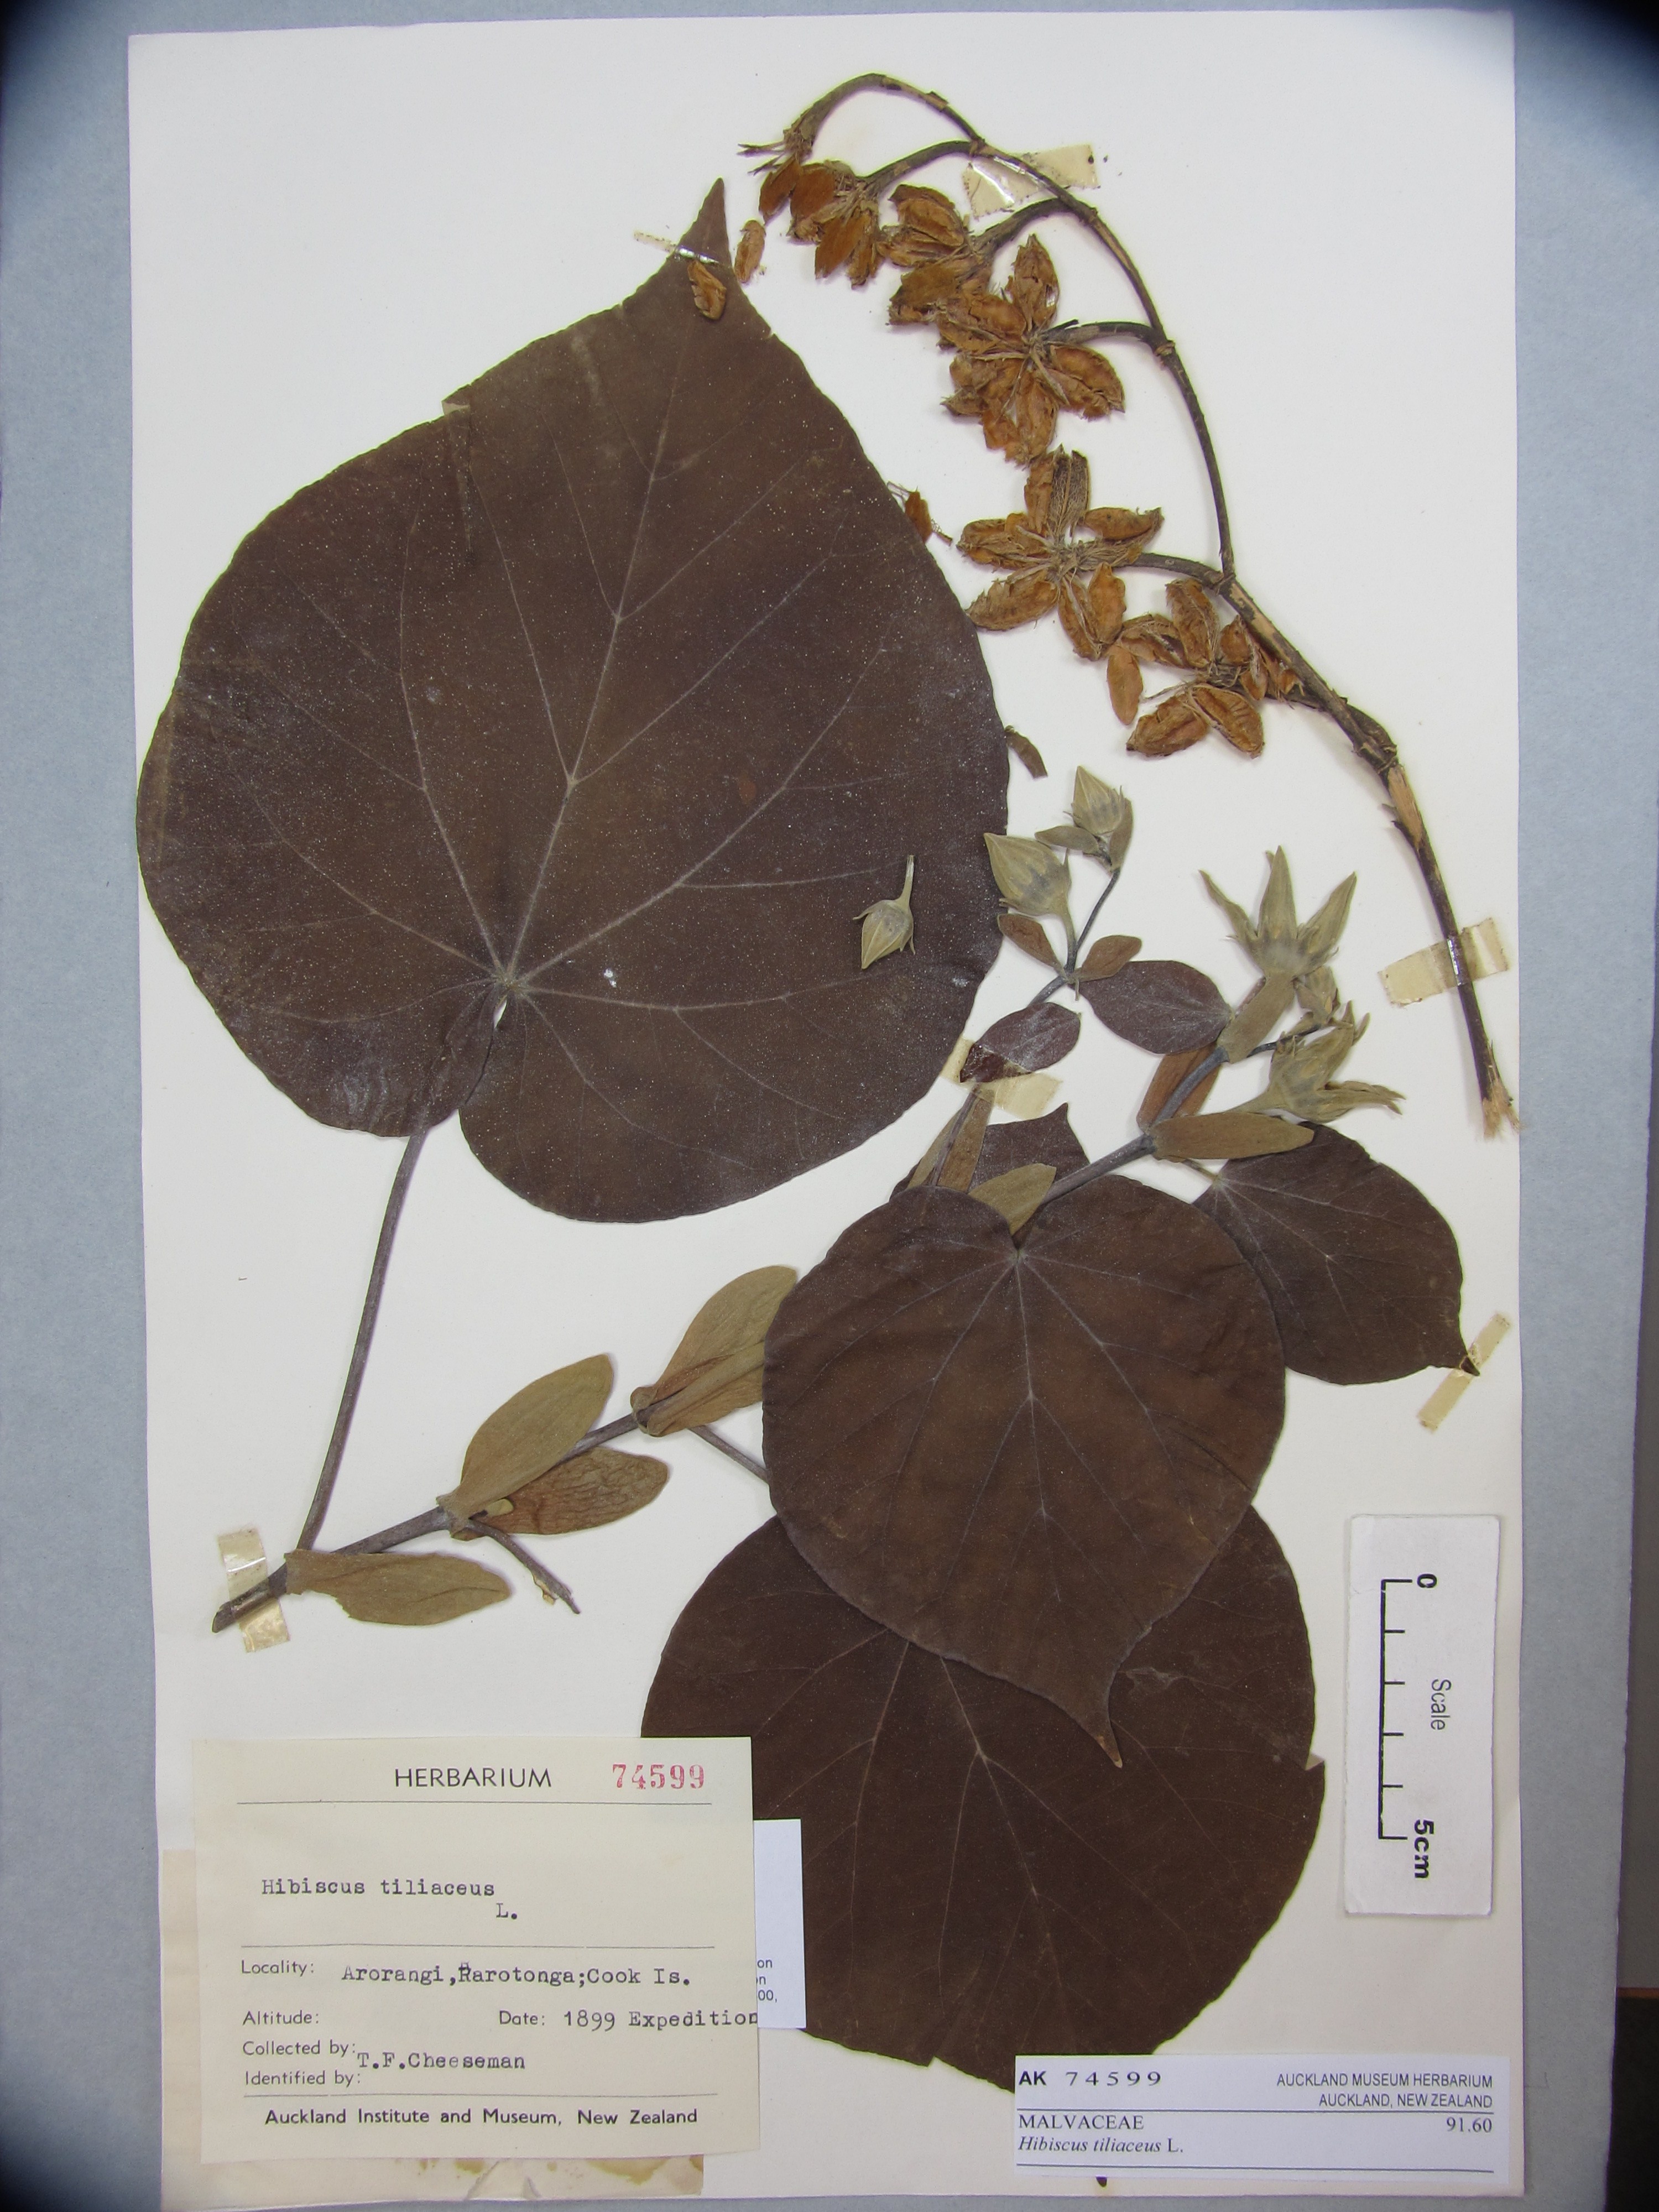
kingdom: Plantae
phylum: Tracheophyta
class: Magnoliopsida
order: Malvales
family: Malvaceae
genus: Talipariti
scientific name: Talipariti tiliaceum
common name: Sea hibiscus
